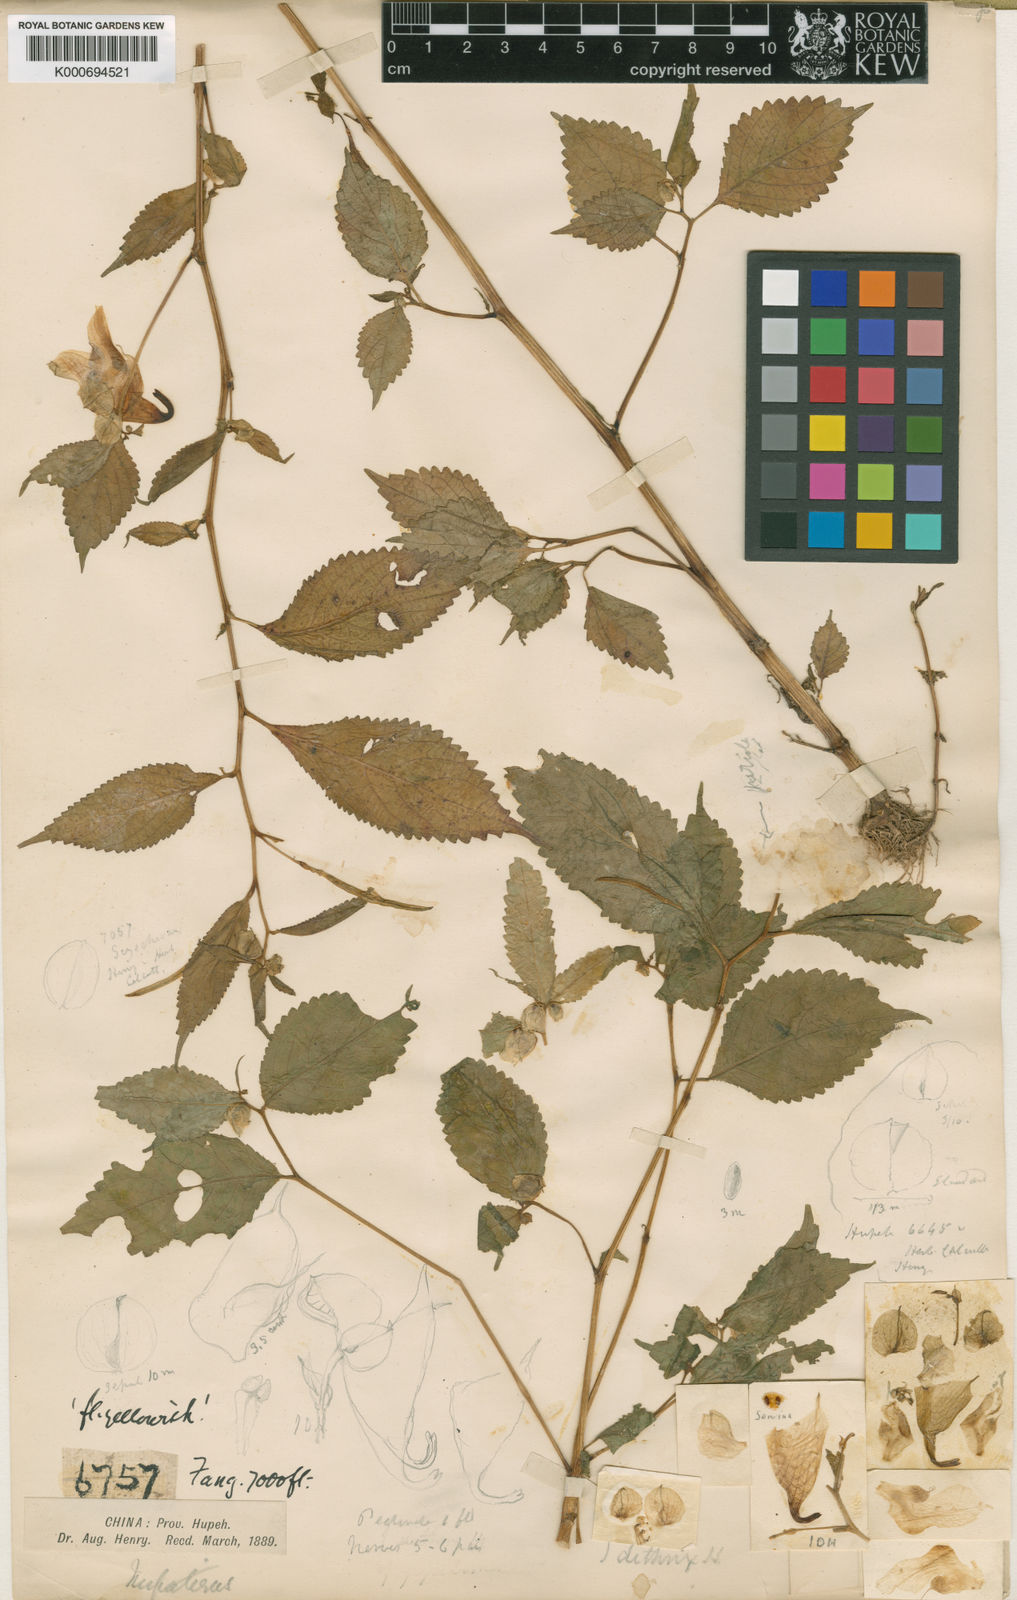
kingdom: Plantae
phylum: Tracheophyta
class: Magnoliopsida
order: Ericales
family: Balsaminaceae
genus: Impatiens
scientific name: Impatiens
